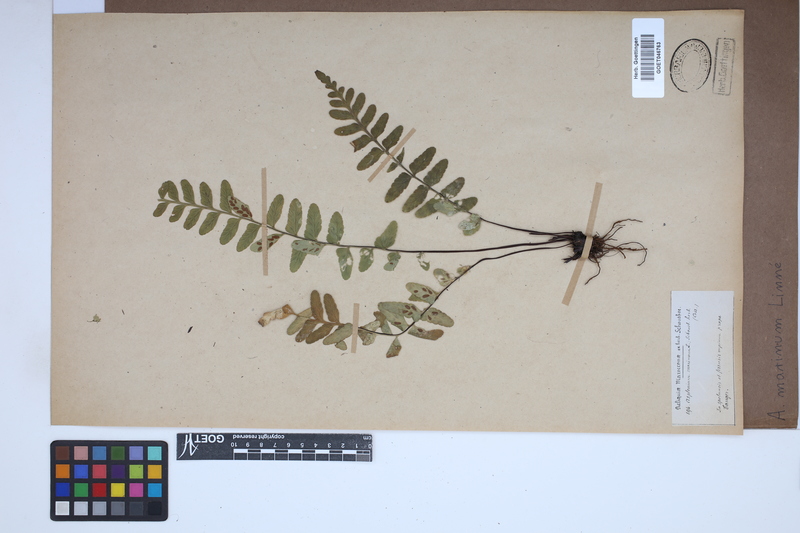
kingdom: Plantae
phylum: Tracheophyta
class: Polypodiopsida
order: Polypodiales
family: Aspleniaceae
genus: Asplenium
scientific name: Asplenium marinum
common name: Sea spleenwort
